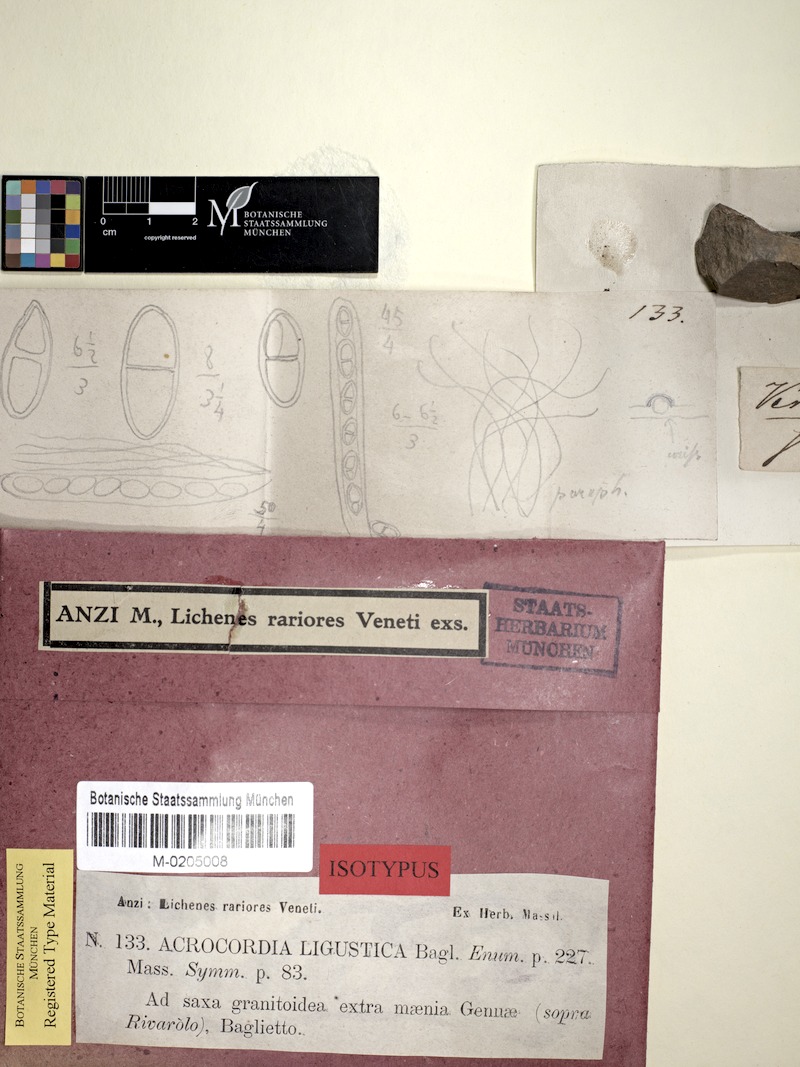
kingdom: Fungi
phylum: Ascomycota
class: Dothideomycetes
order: Monoblastiales
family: Monoblastiaceae
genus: Acrocordia
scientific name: Acrocordia conoidea
